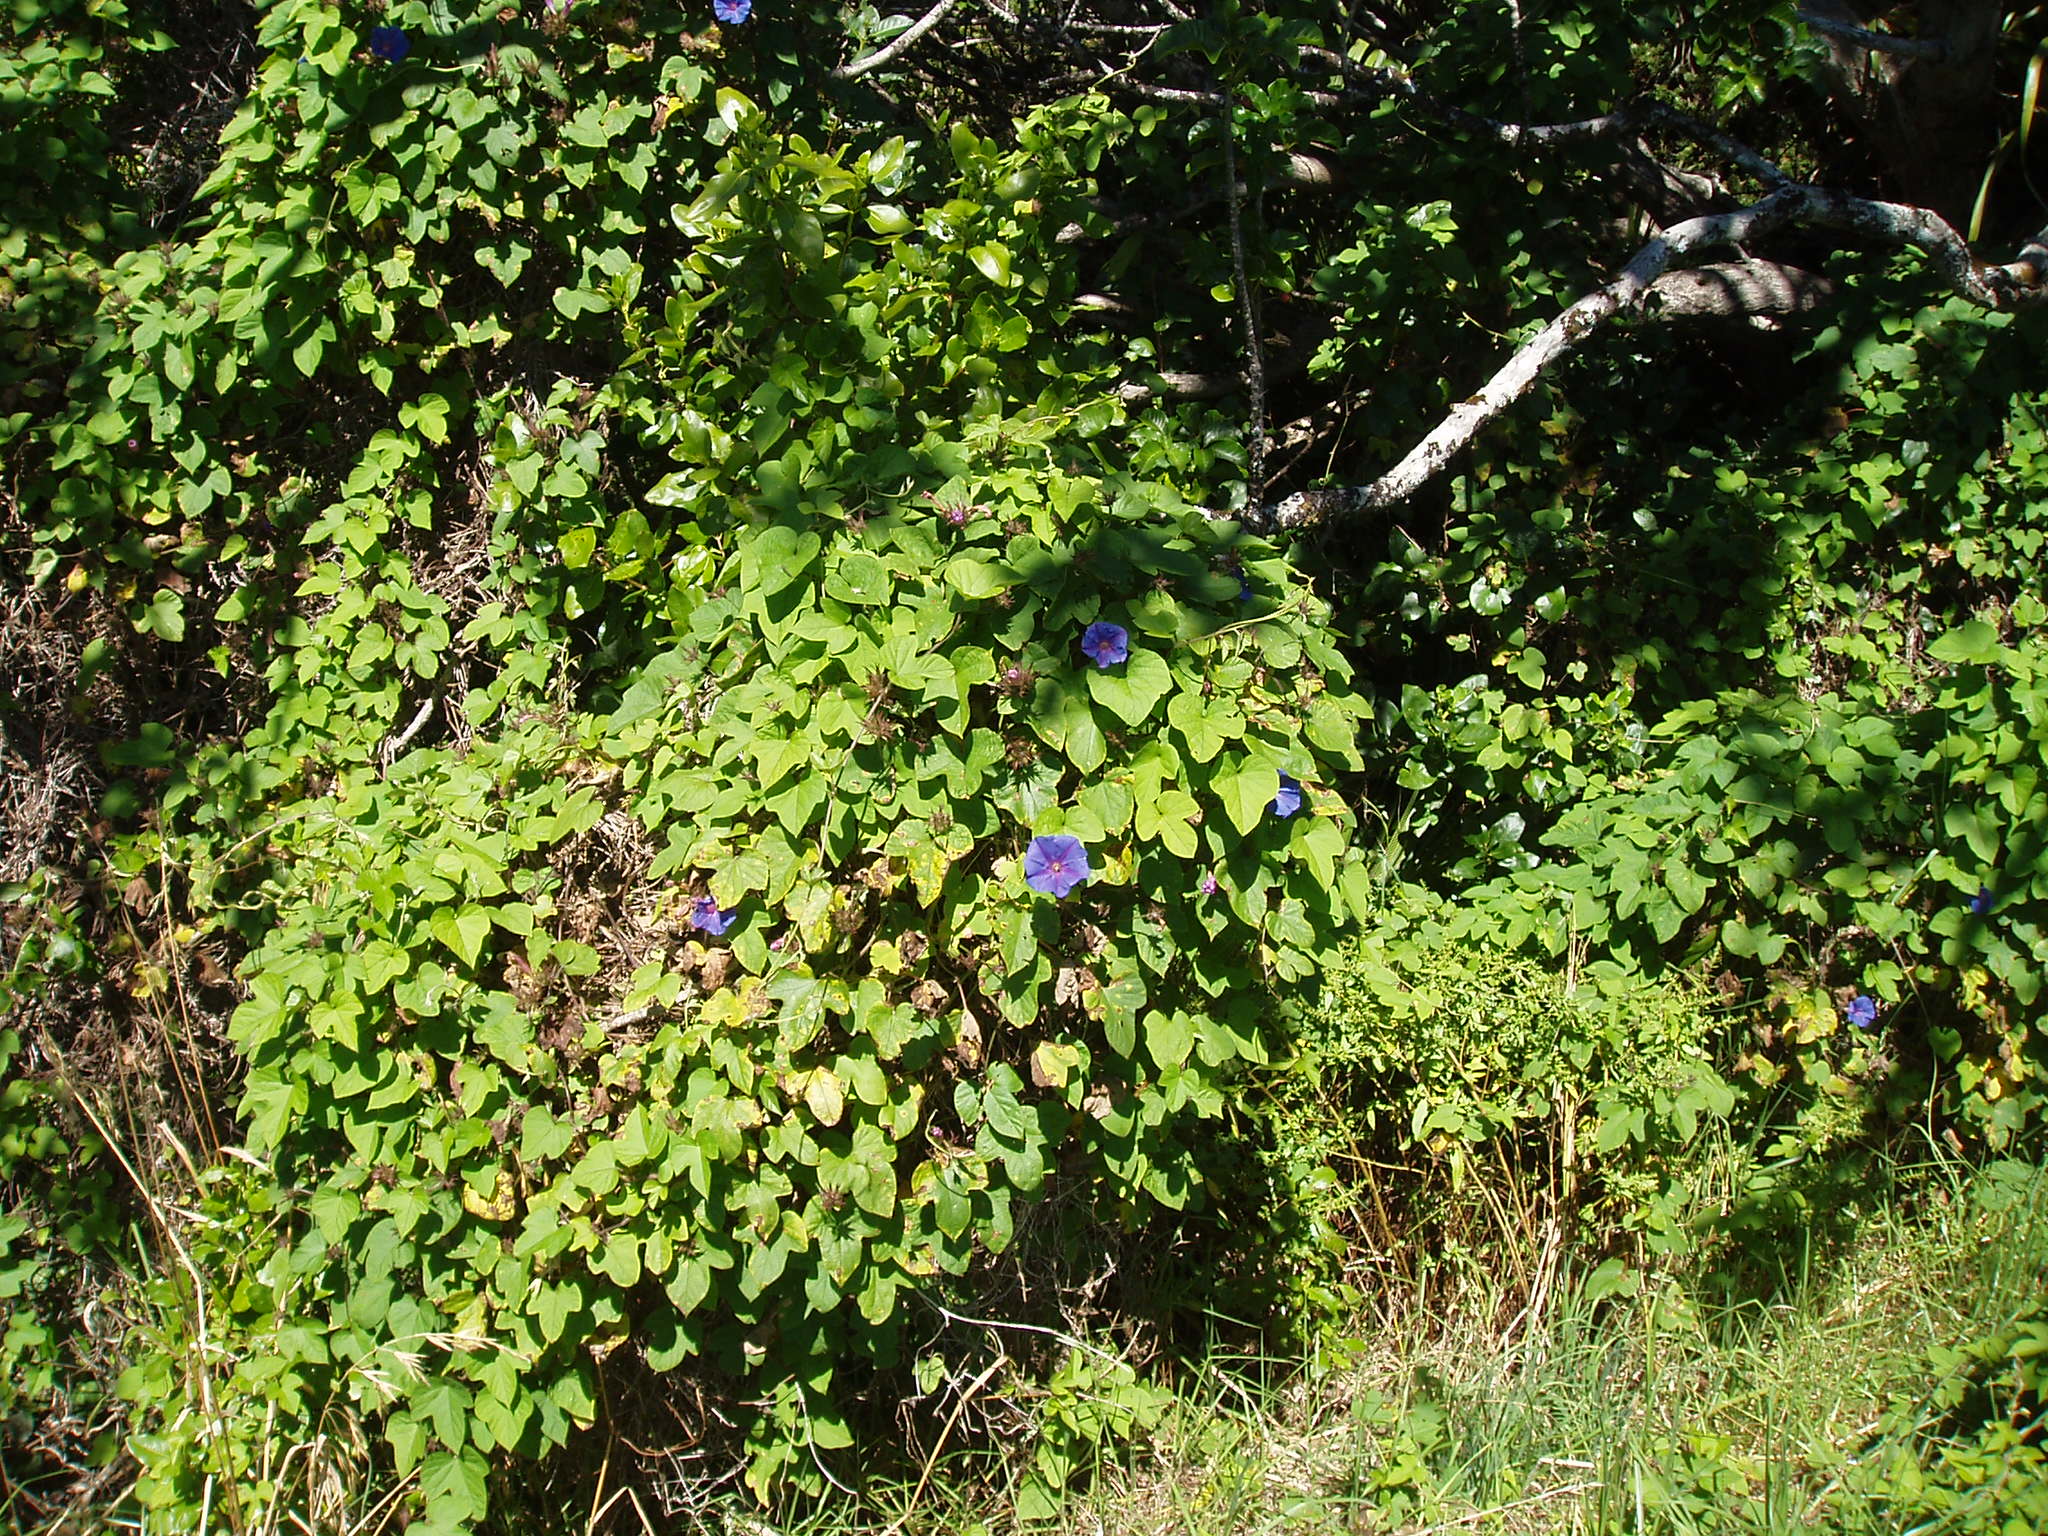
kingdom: Plantae
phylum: Tracheophyta
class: Magnoliopsida
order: Solanales
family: Convolvulaceae
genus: Ipomoea
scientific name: Ipomoea indica
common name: Blue dawnflower
